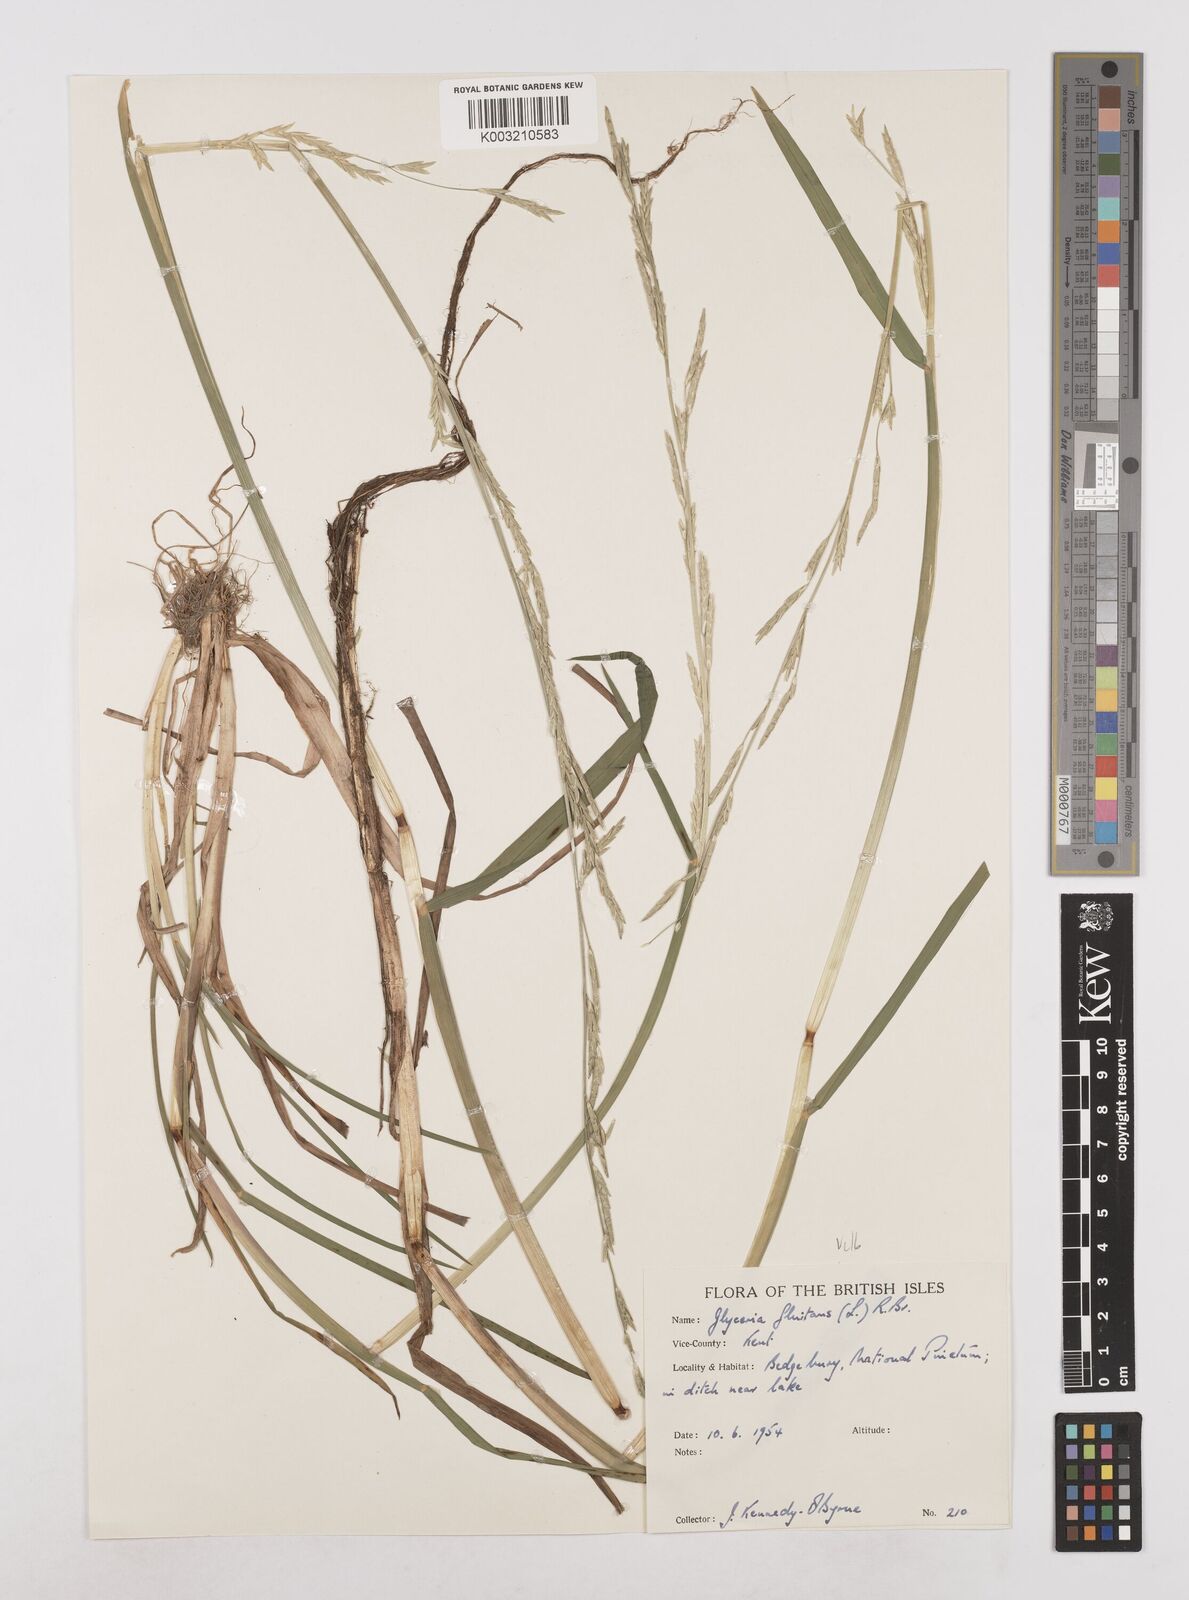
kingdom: Plantae
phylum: Tracheophyta
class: Liliopsida
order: Poales
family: Poaceae
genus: Glyceria
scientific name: Glyceria fluitans
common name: Floating sweet-grass
